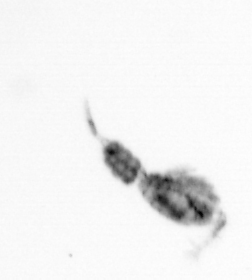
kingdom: Animalia
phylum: Arthropoda
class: Copepoda
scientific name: Copepoda
